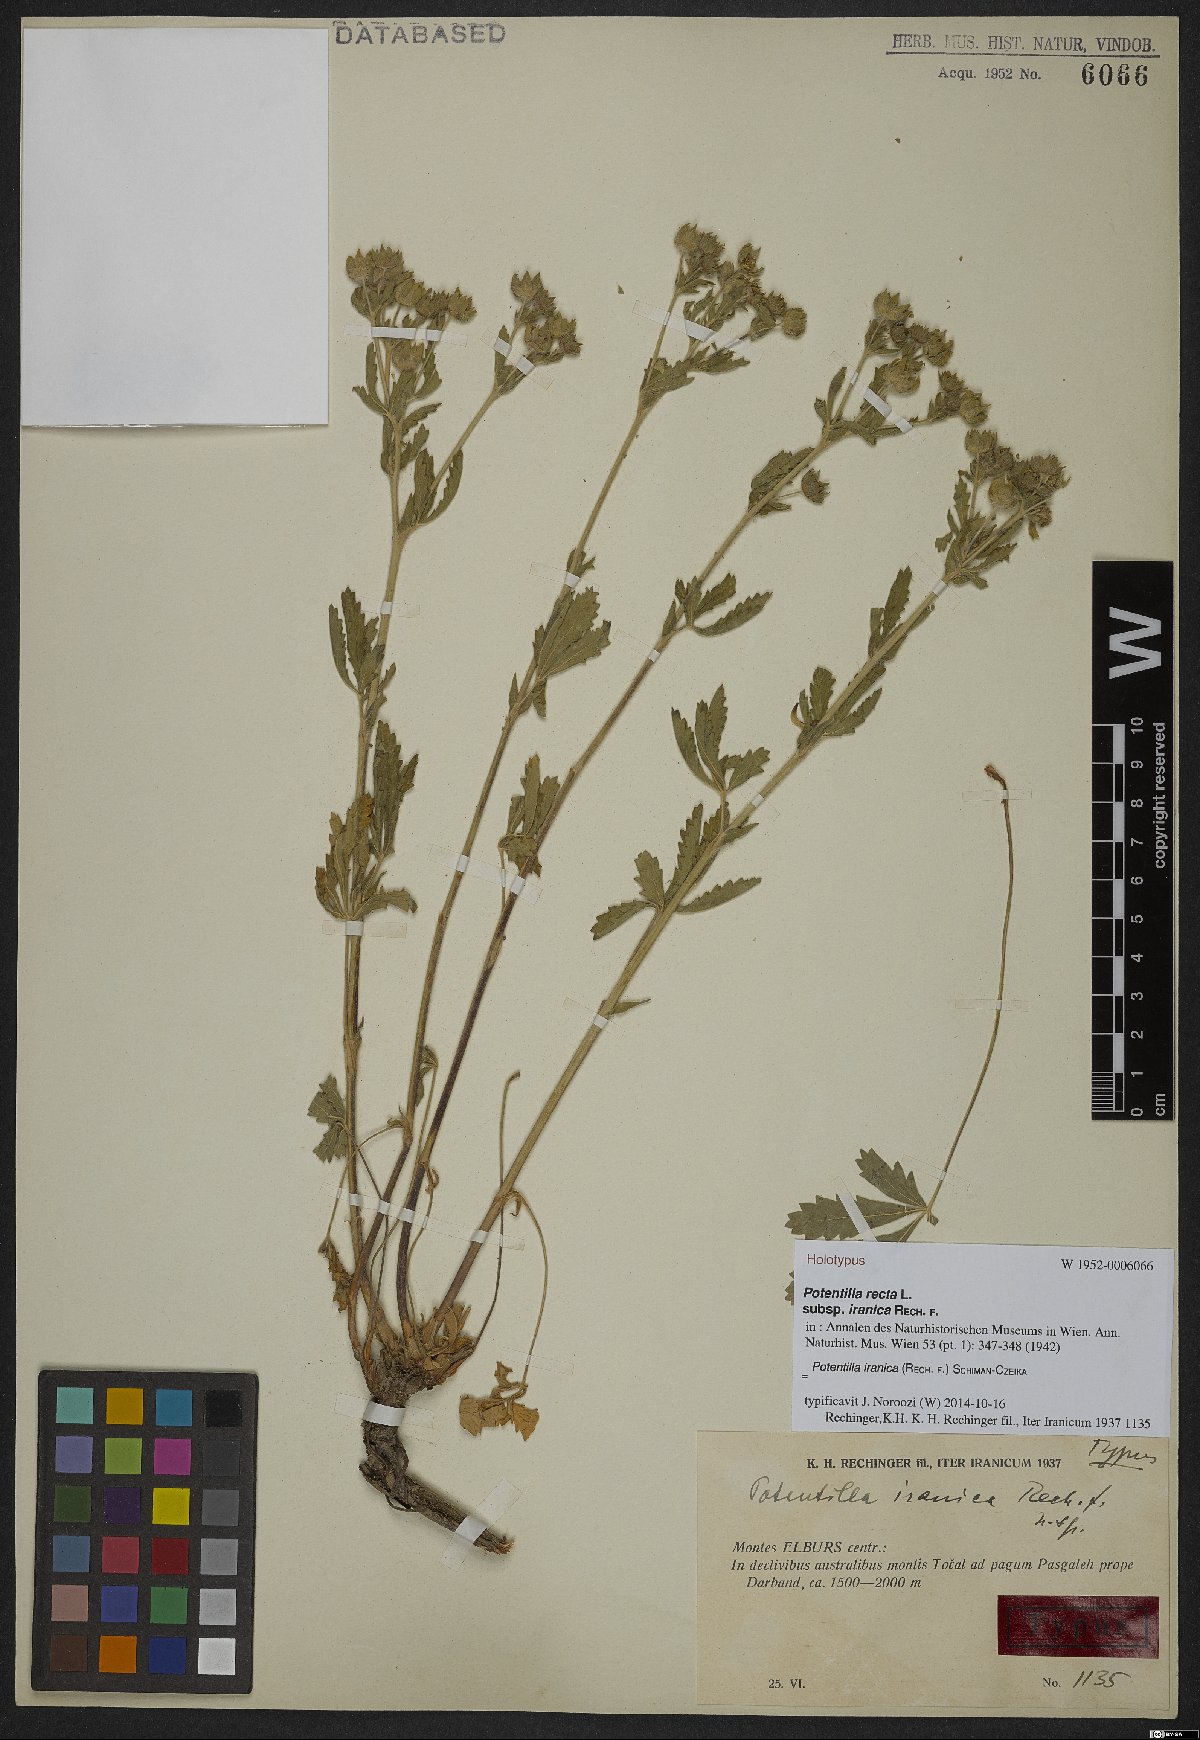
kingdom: Plantae
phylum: Tracheophyta
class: Magnoliopsida
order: Rosales
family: Rosaceae
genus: Potentilla
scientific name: Potentilla iranica
